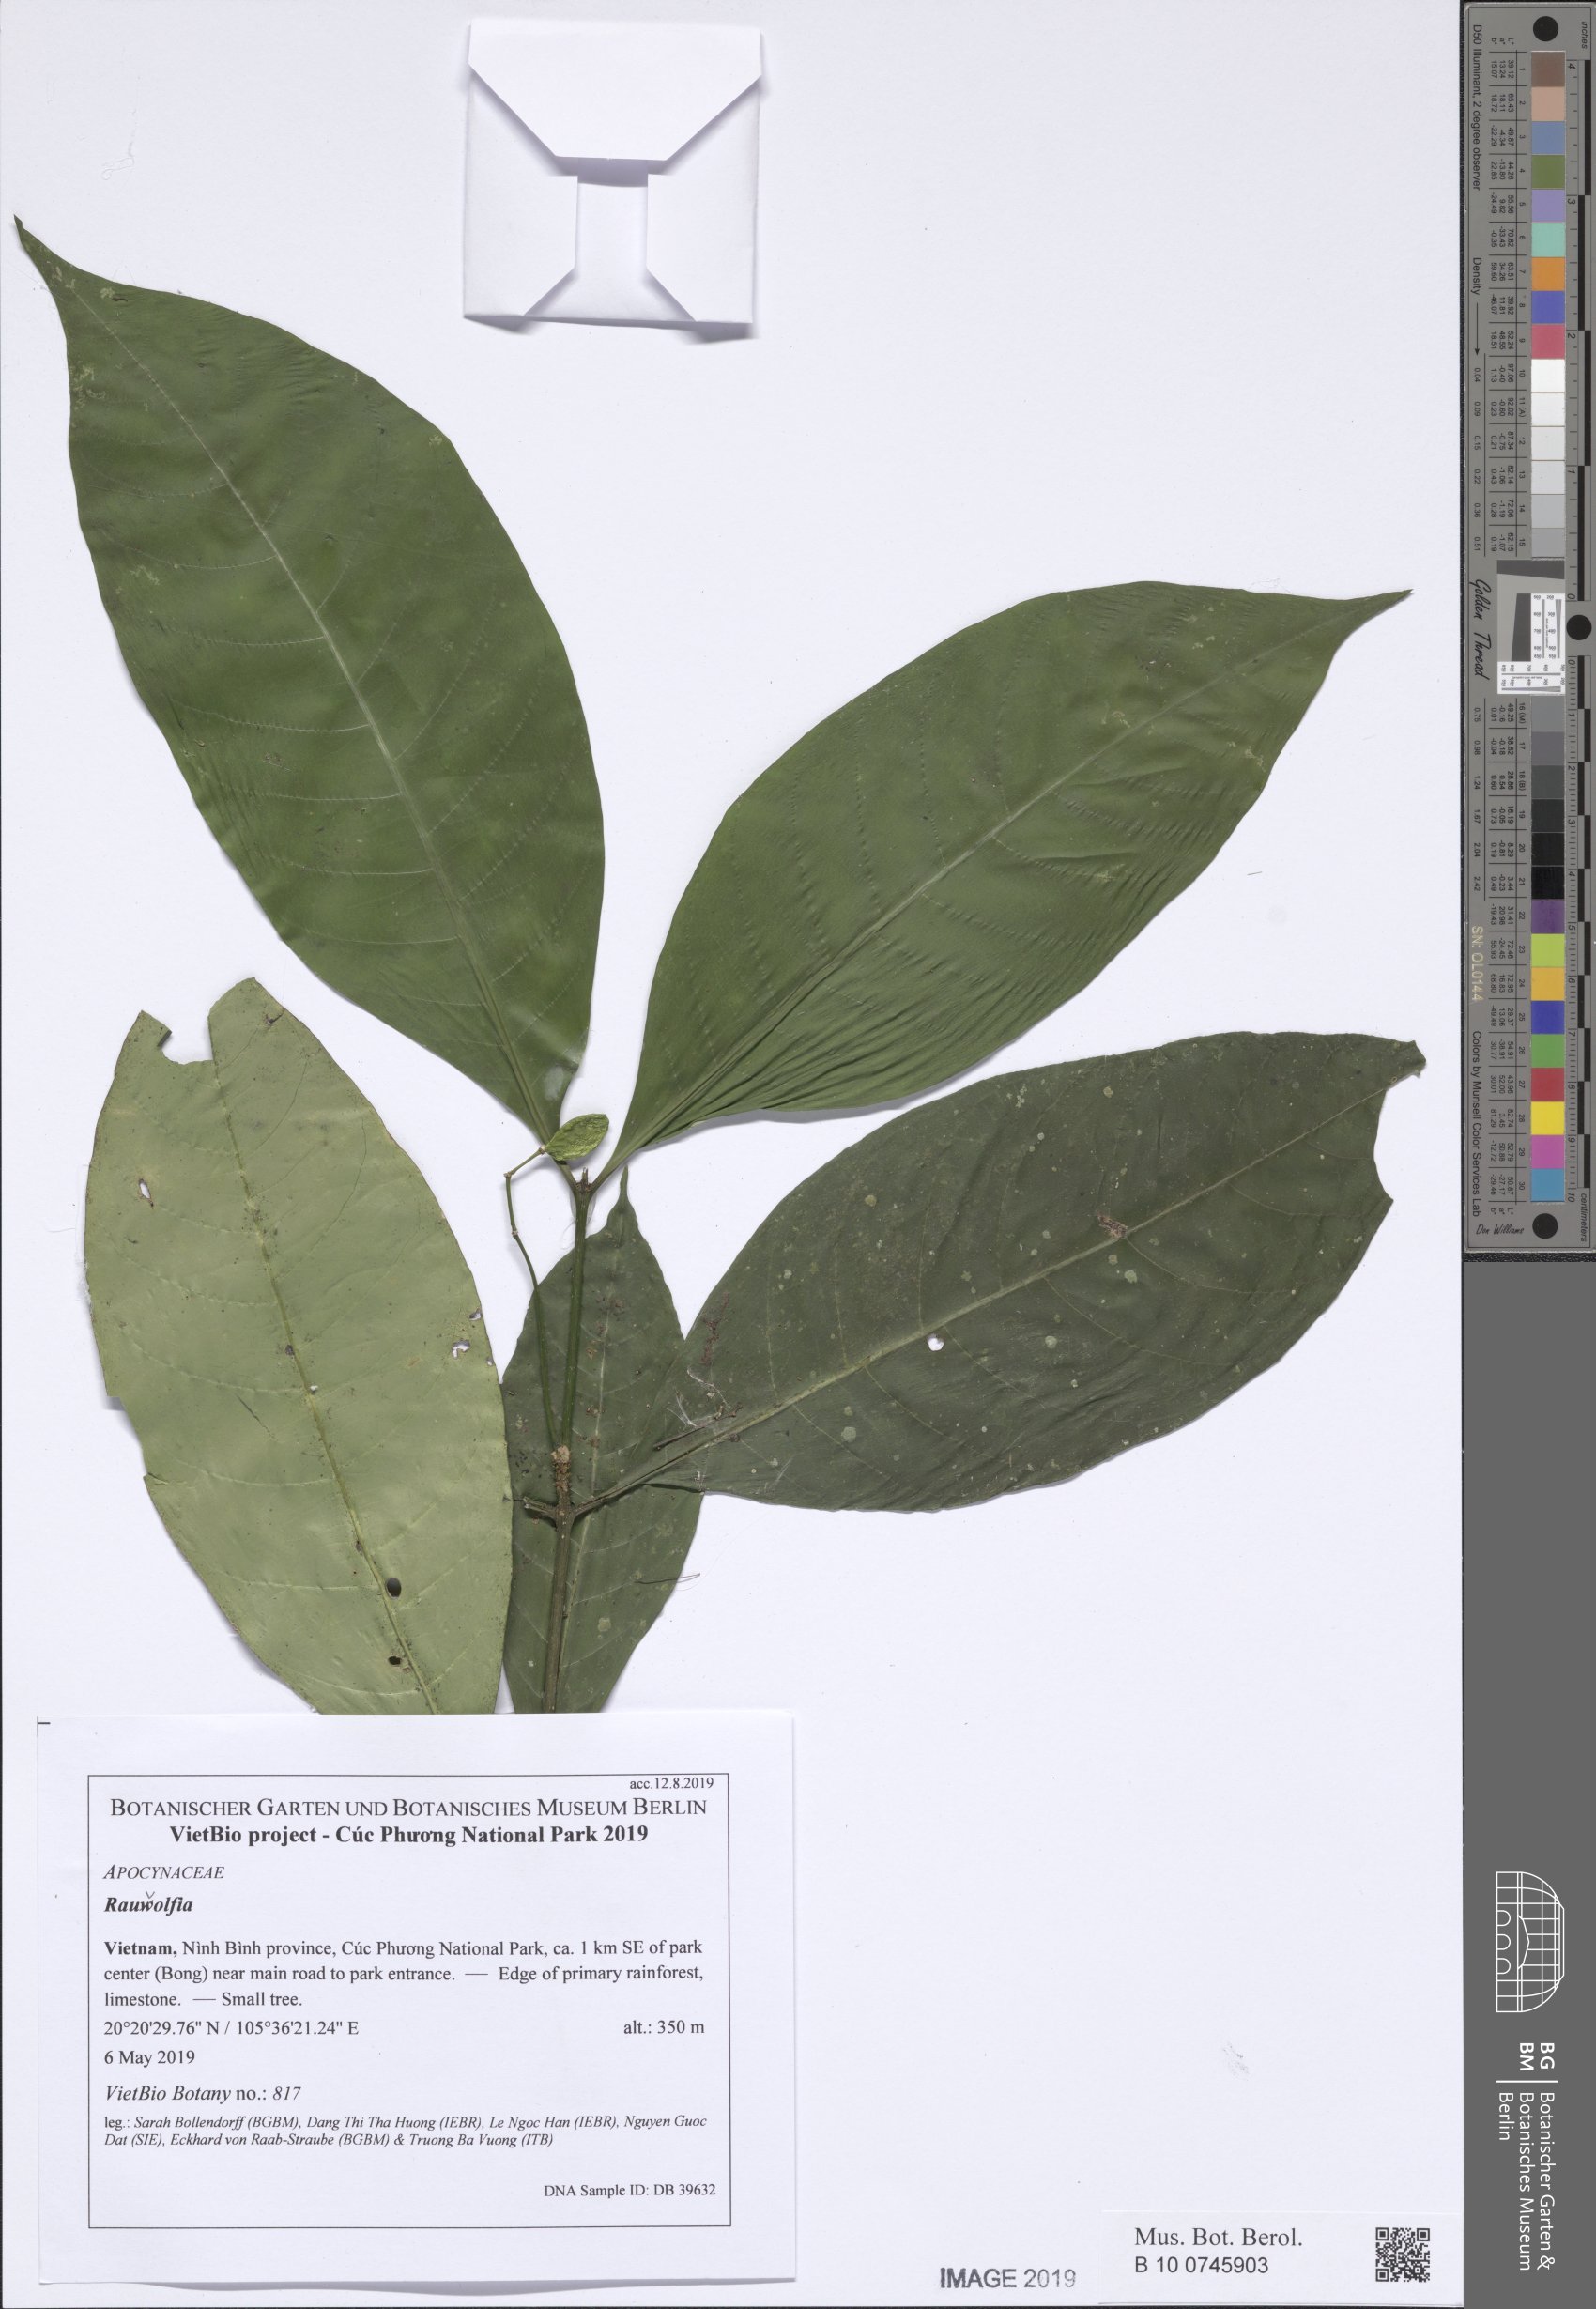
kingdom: Plantae
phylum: Tracheophyta
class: Magnoliopsida
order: Gentianales
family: Apocynaceae
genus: Rauvolfia
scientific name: Rauvolfia cambodiana
